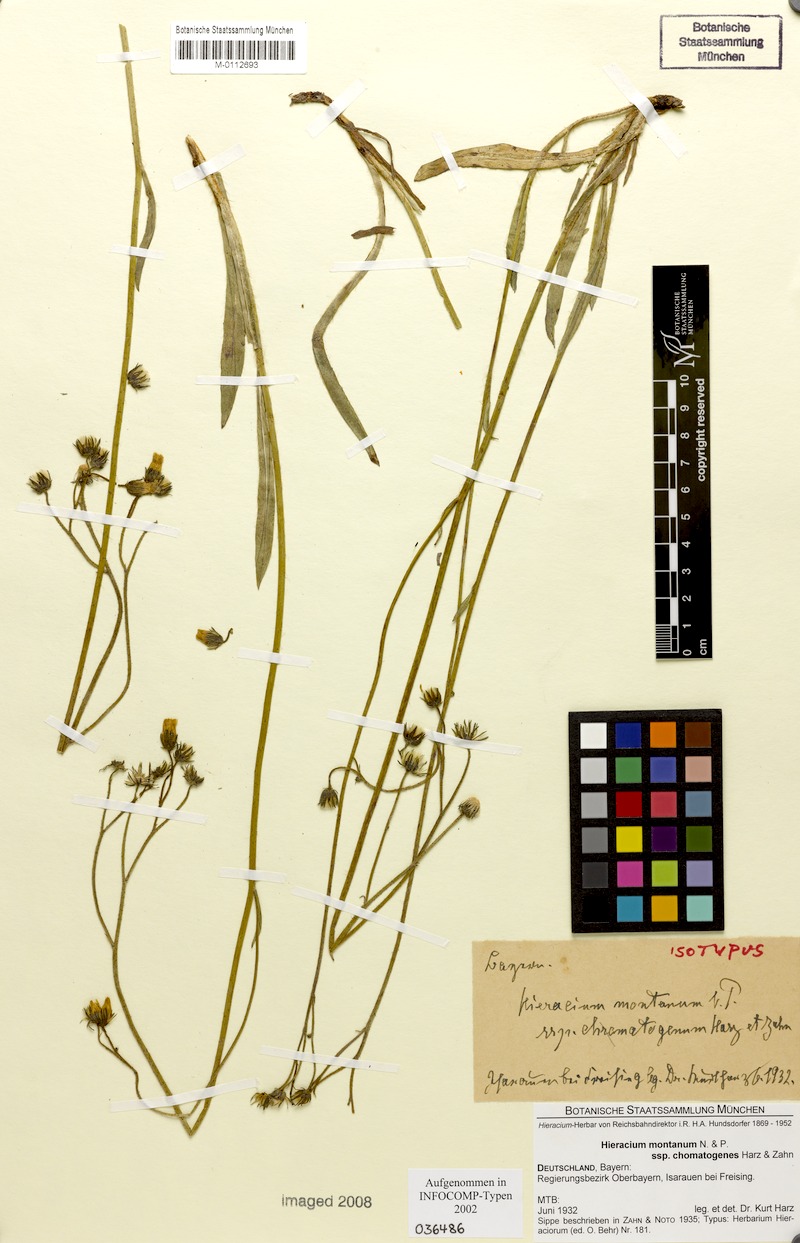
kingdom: Plantae
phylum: Tracheophyta
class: Magnoliopsida
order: Asterales
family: Asteraceae
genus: Pilosella
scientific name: Pilosella chomatophila
